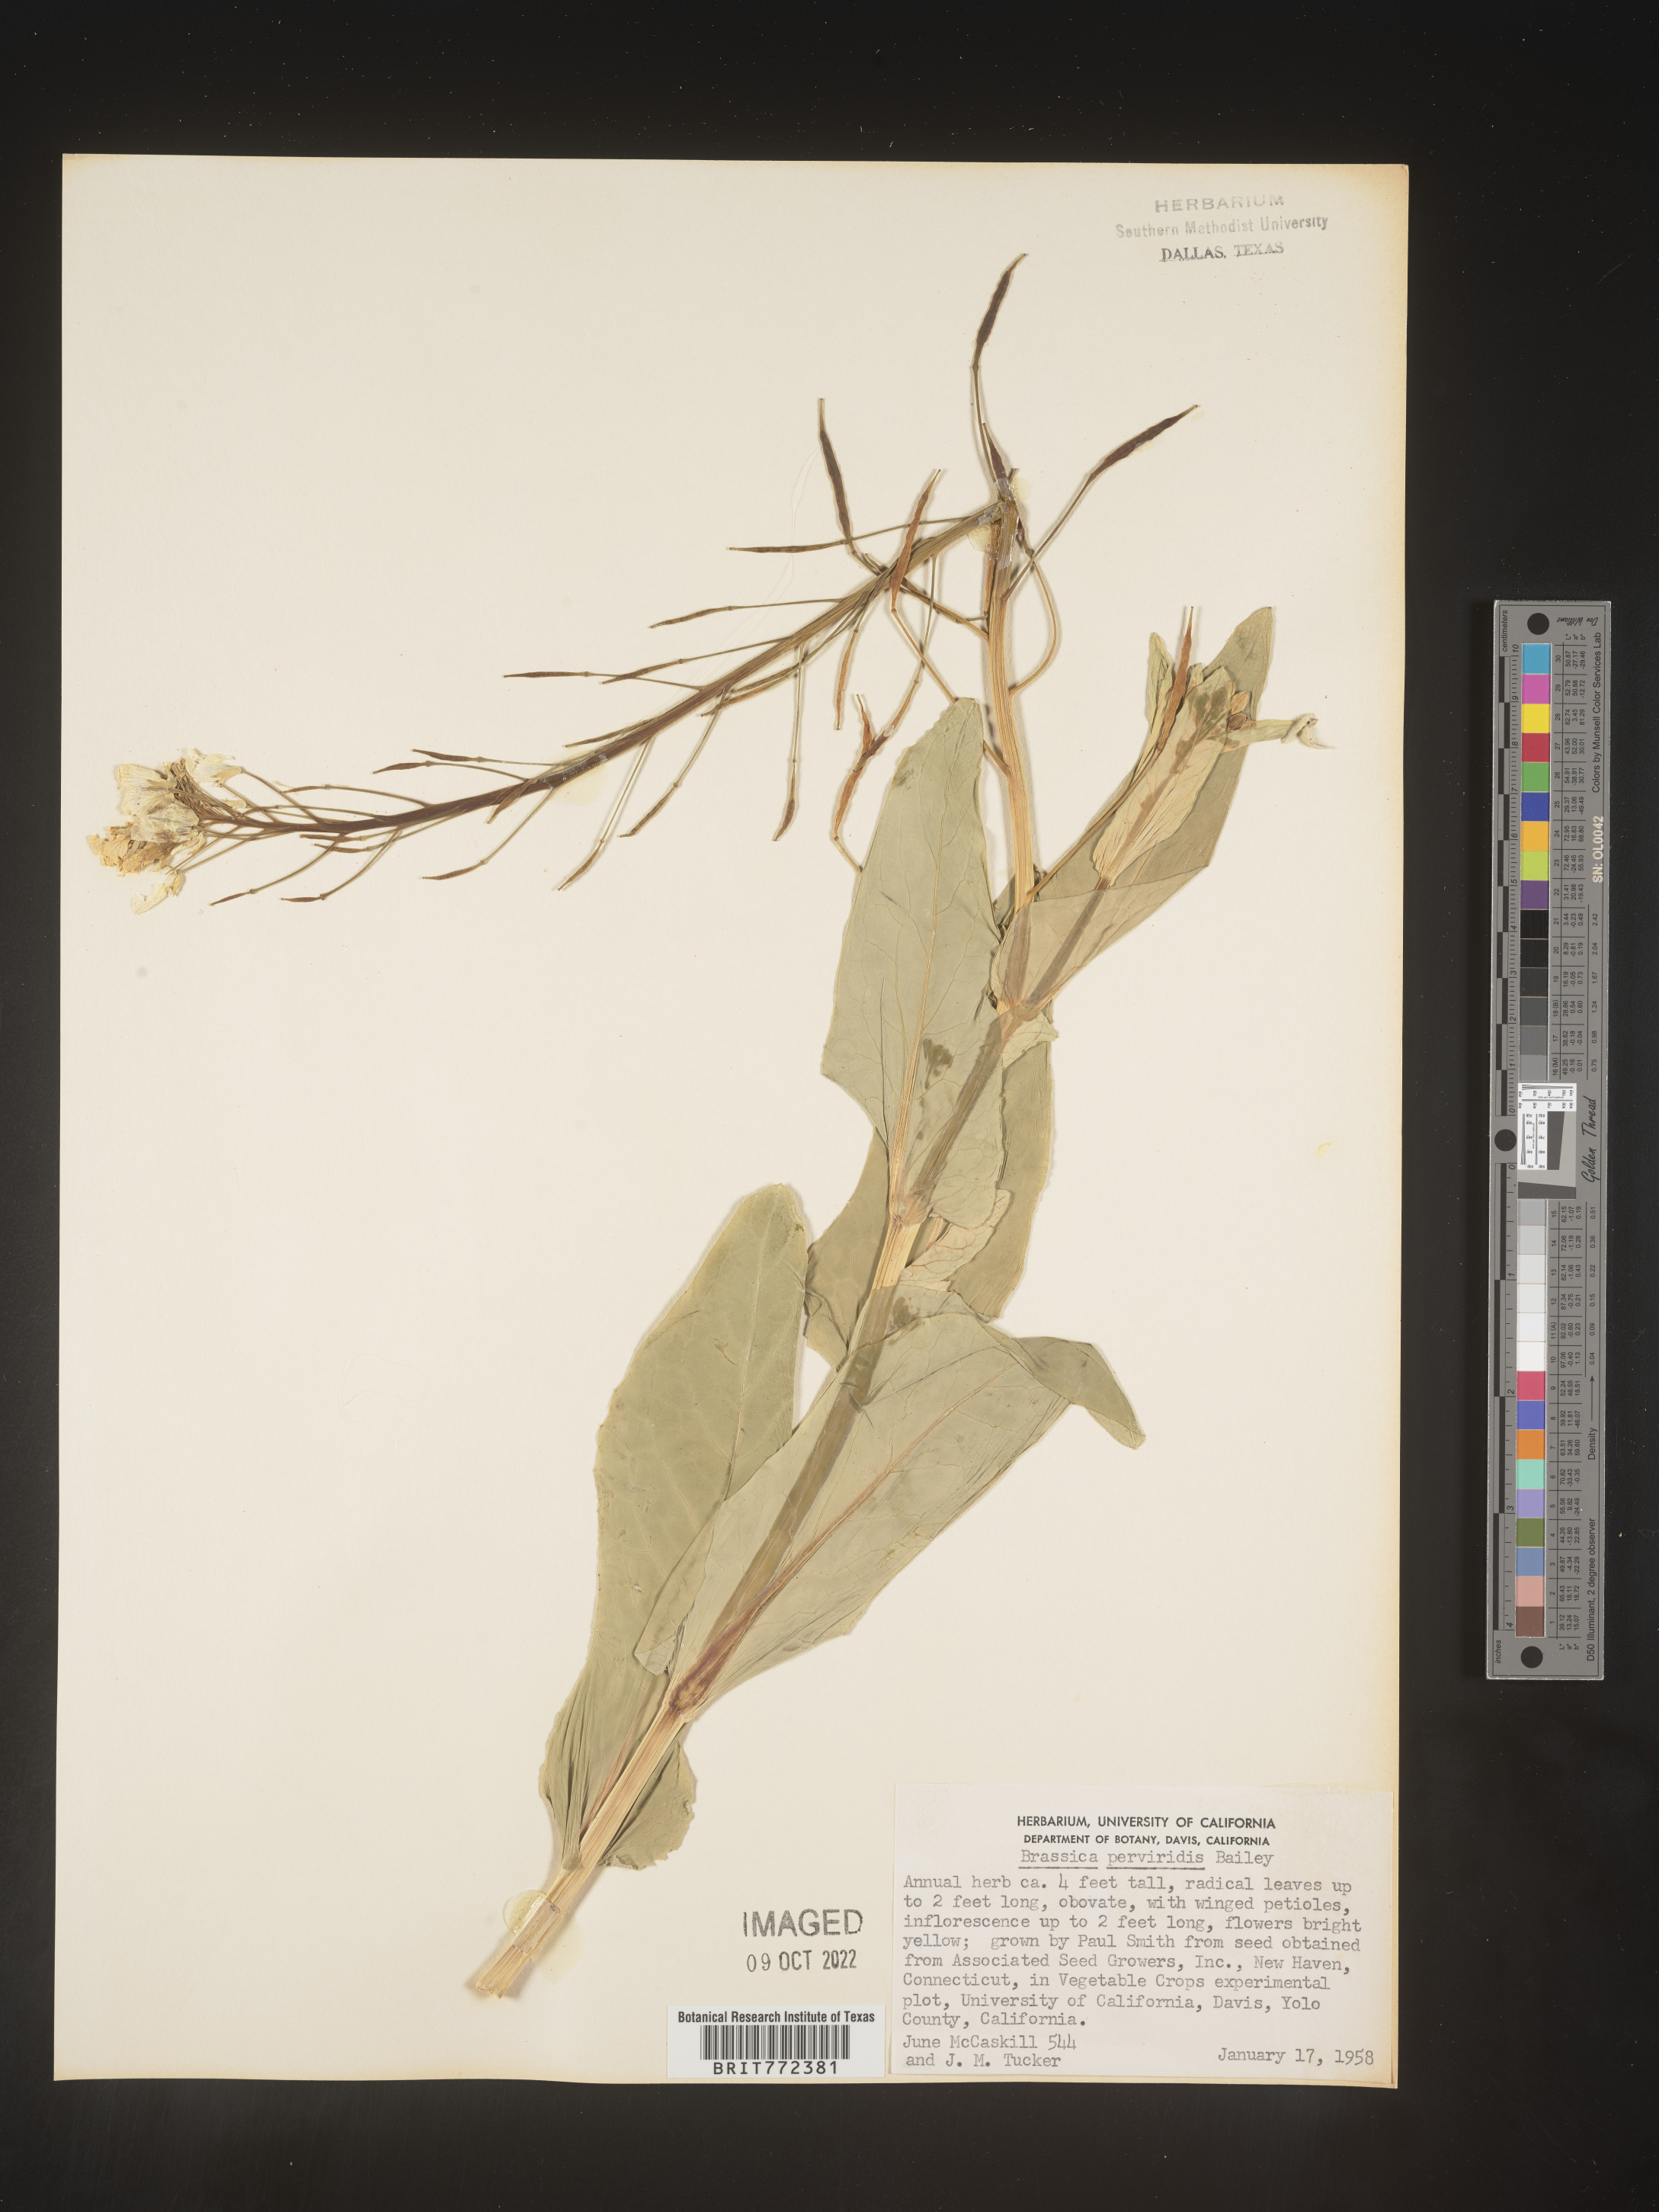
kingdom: Plantae
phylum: Tracheophyta
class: Magnoliopsida
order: Brassicales
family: Brassicaceae
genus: Brassica
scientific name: Brassica
